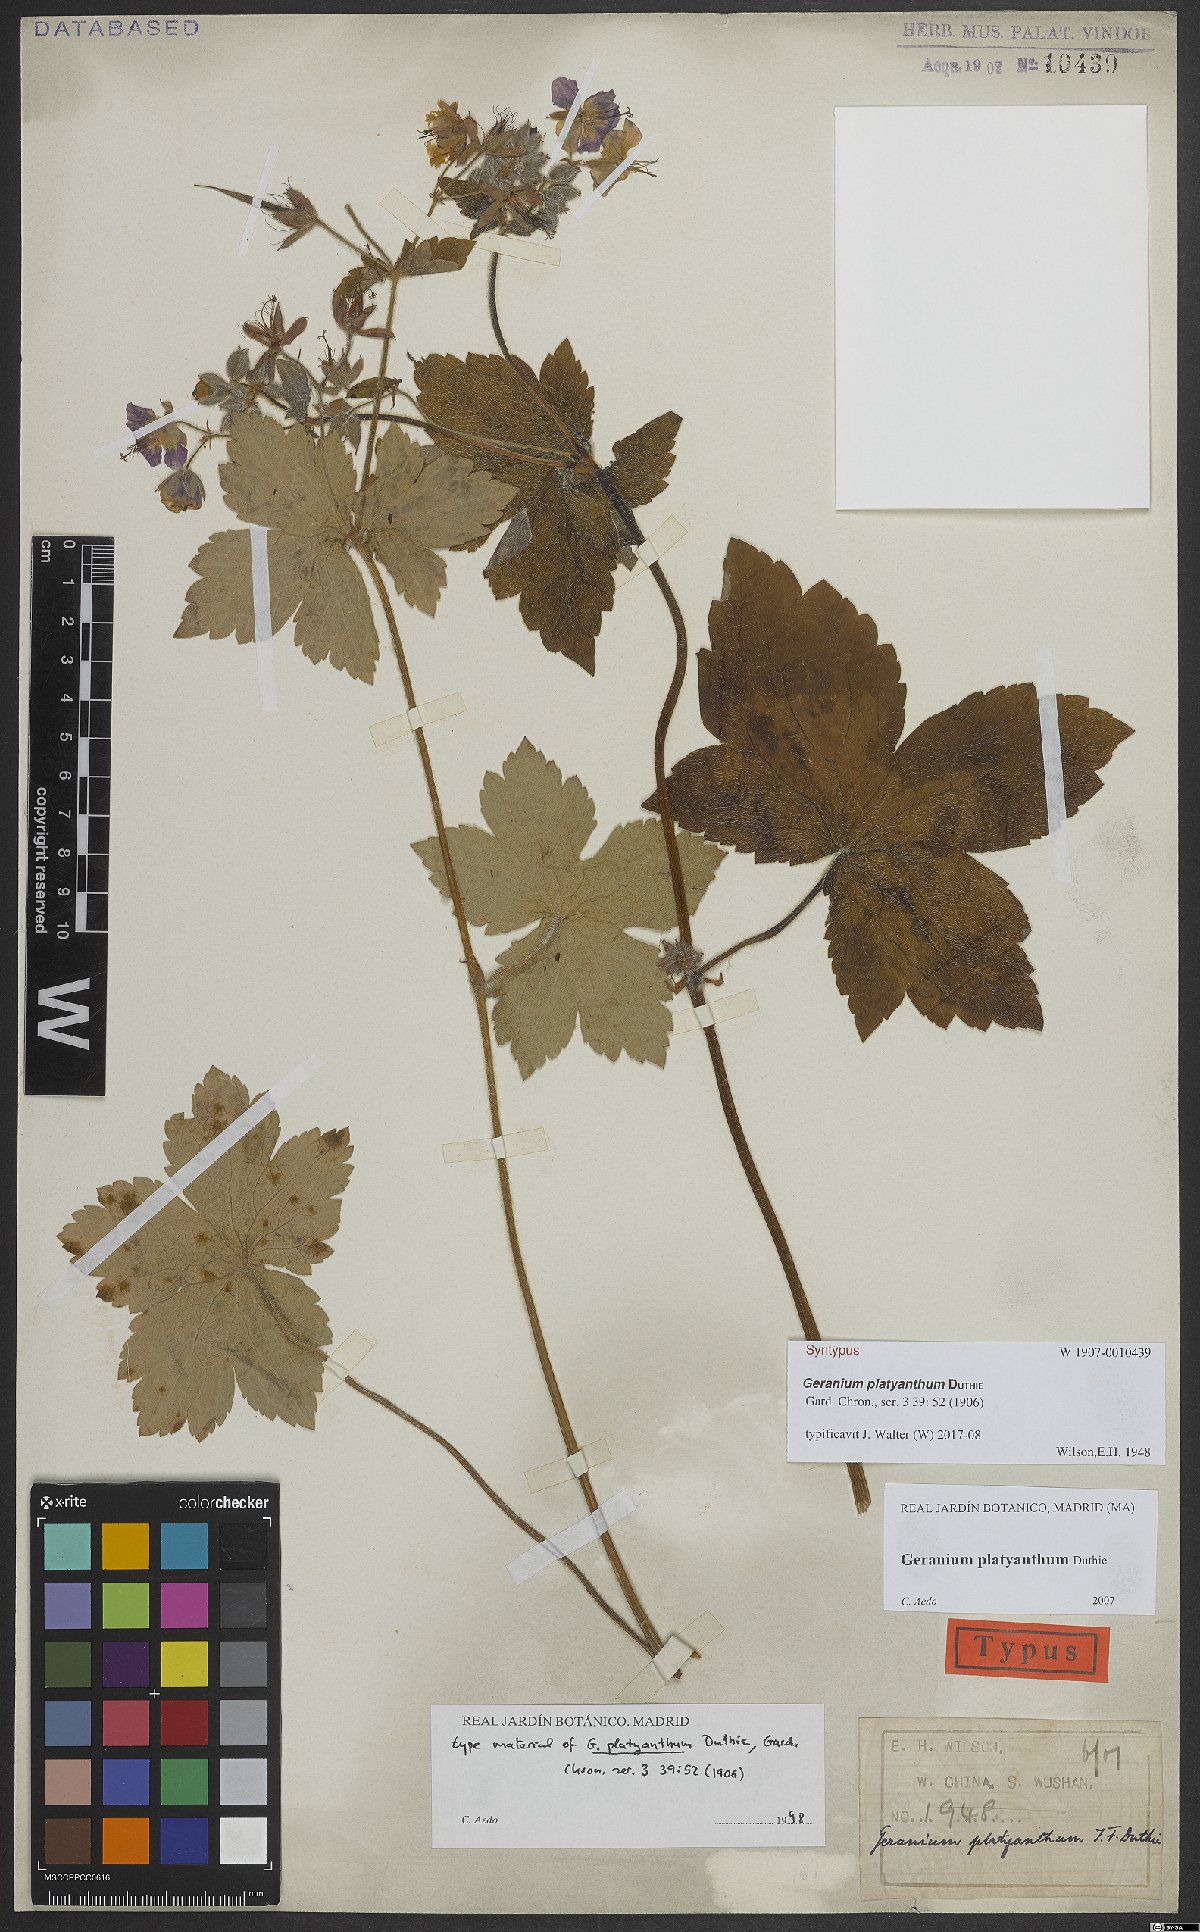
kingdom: Plantae
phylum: Tracheophyta
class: Magnoliopsida
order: Geraniales
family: Geraniaceae
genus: Geranium
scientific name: Geranium platyanthum
